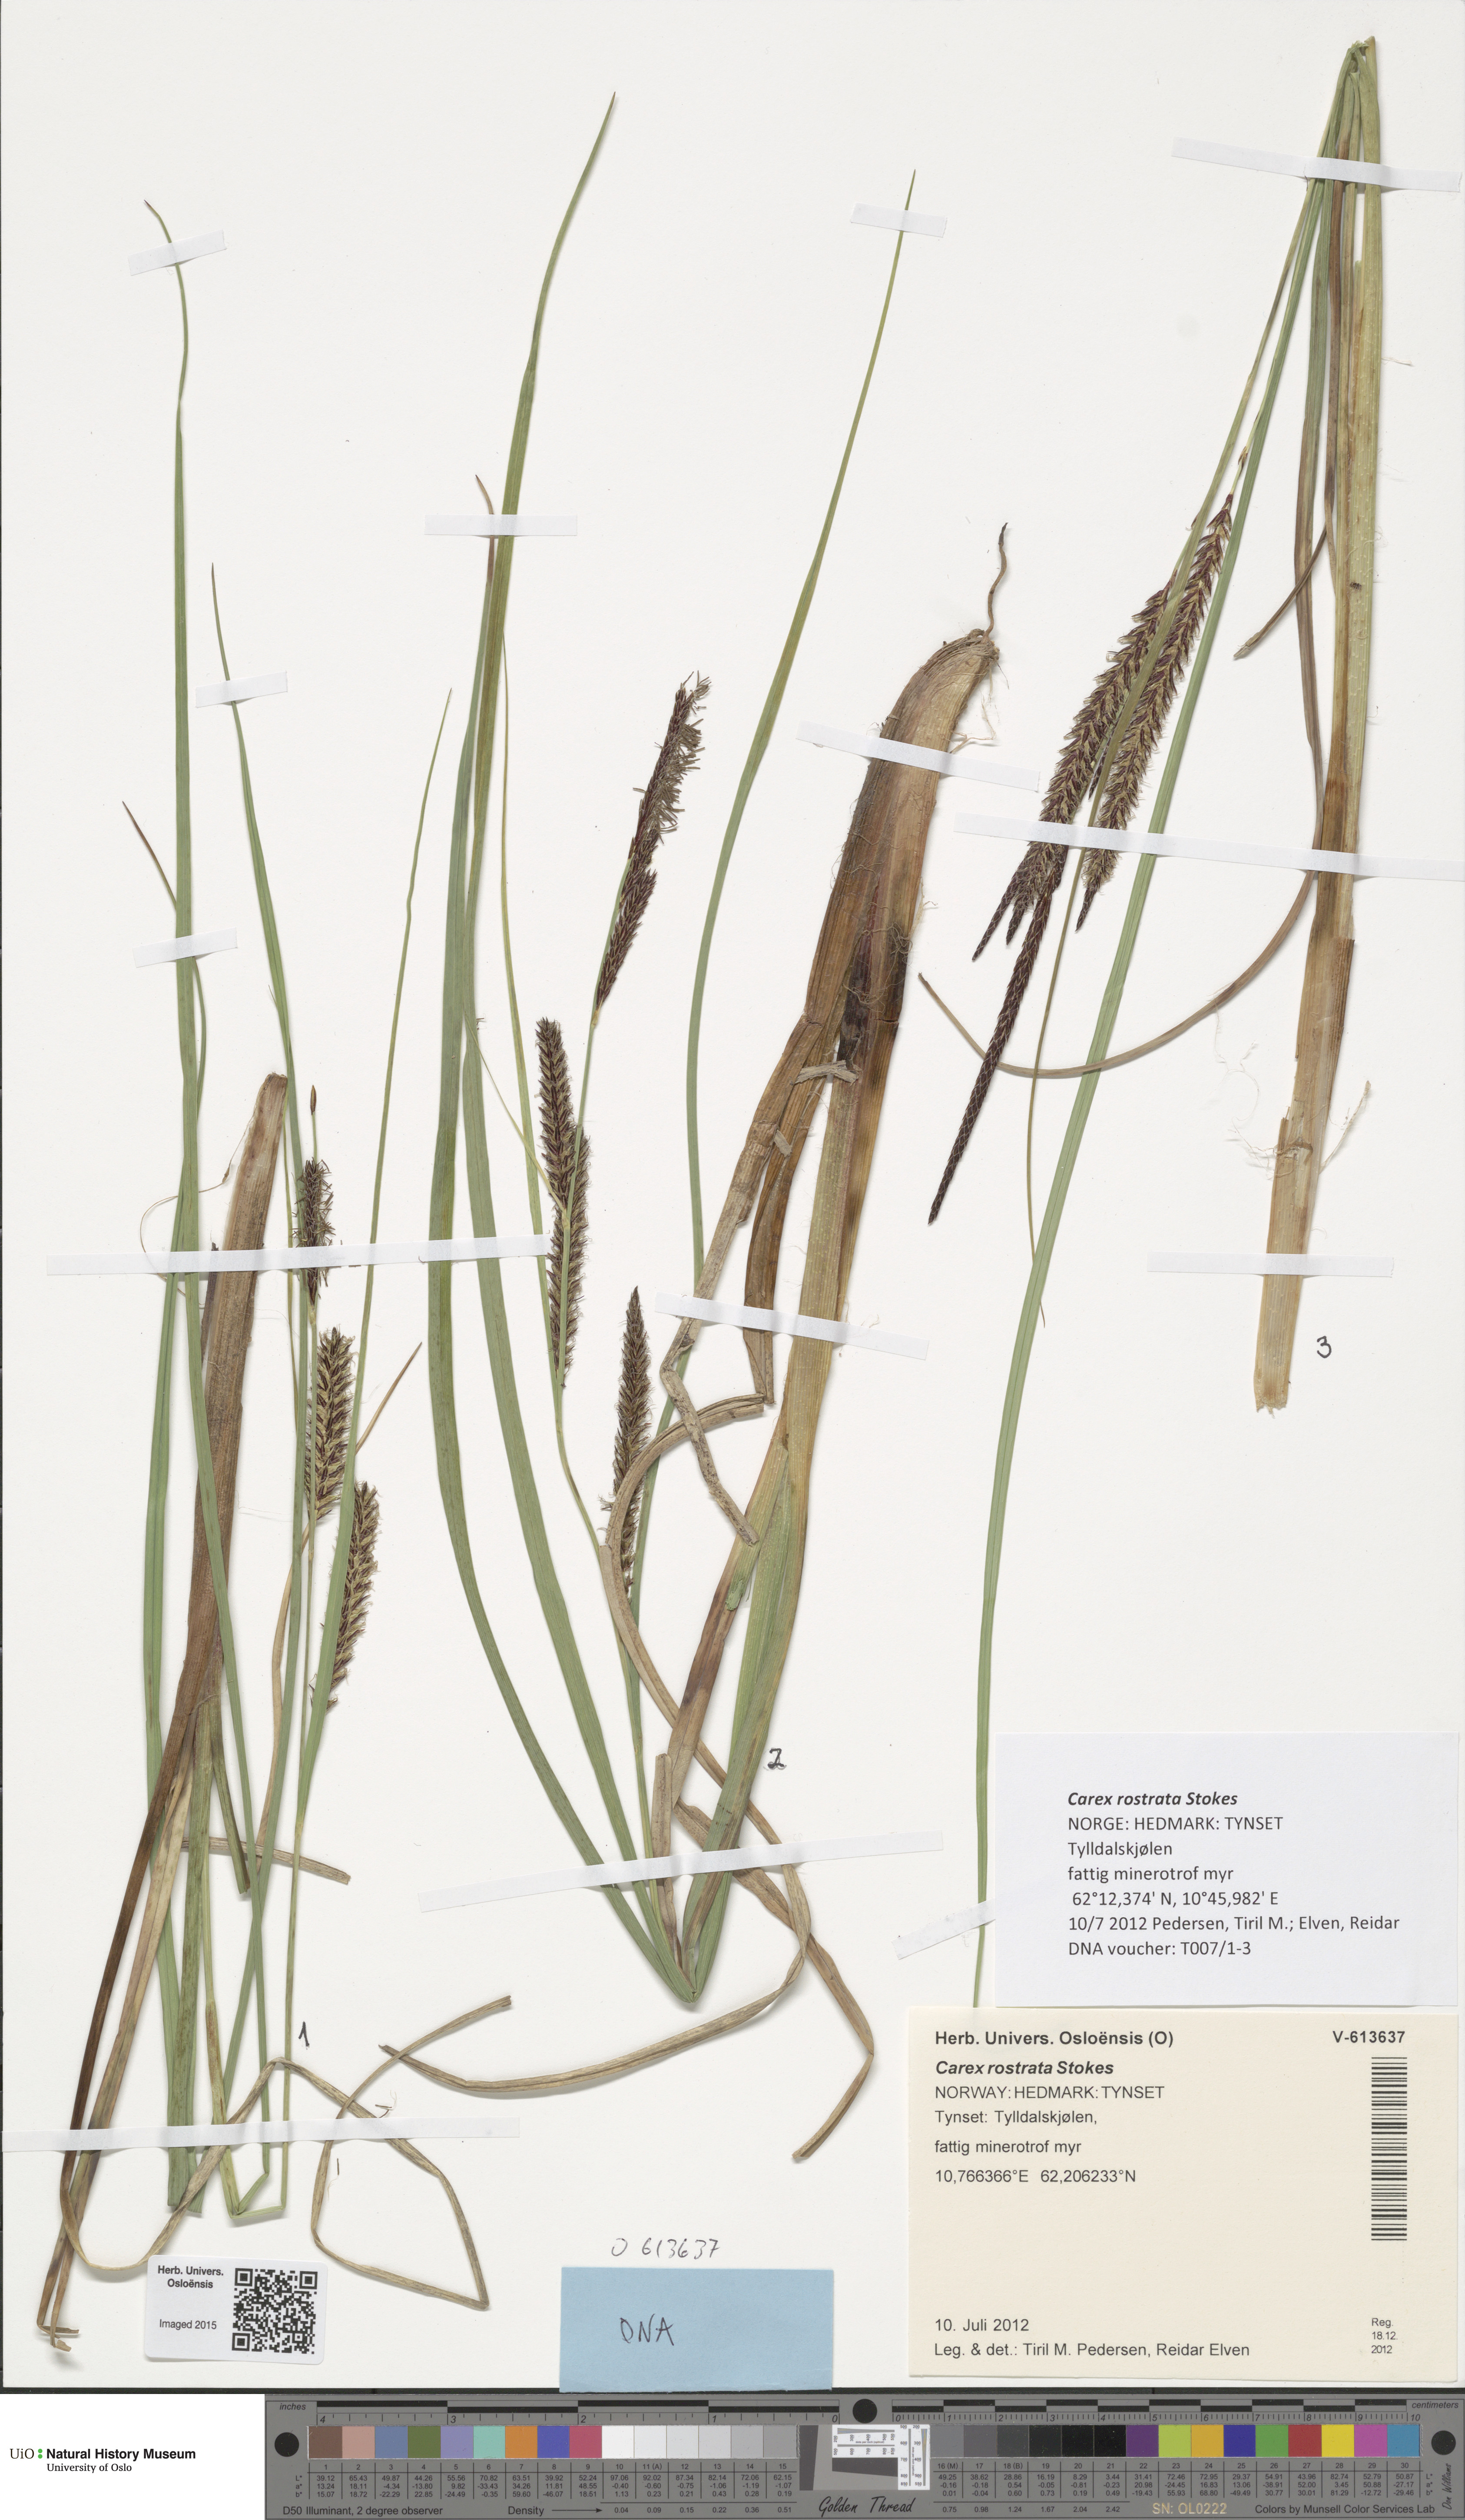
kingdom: Plantae
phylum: Tracheophyta
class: Liliopsida
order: Poales
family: Cyperaceae
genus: Carex
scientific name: Carex rostrata
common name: Bottle sedge
